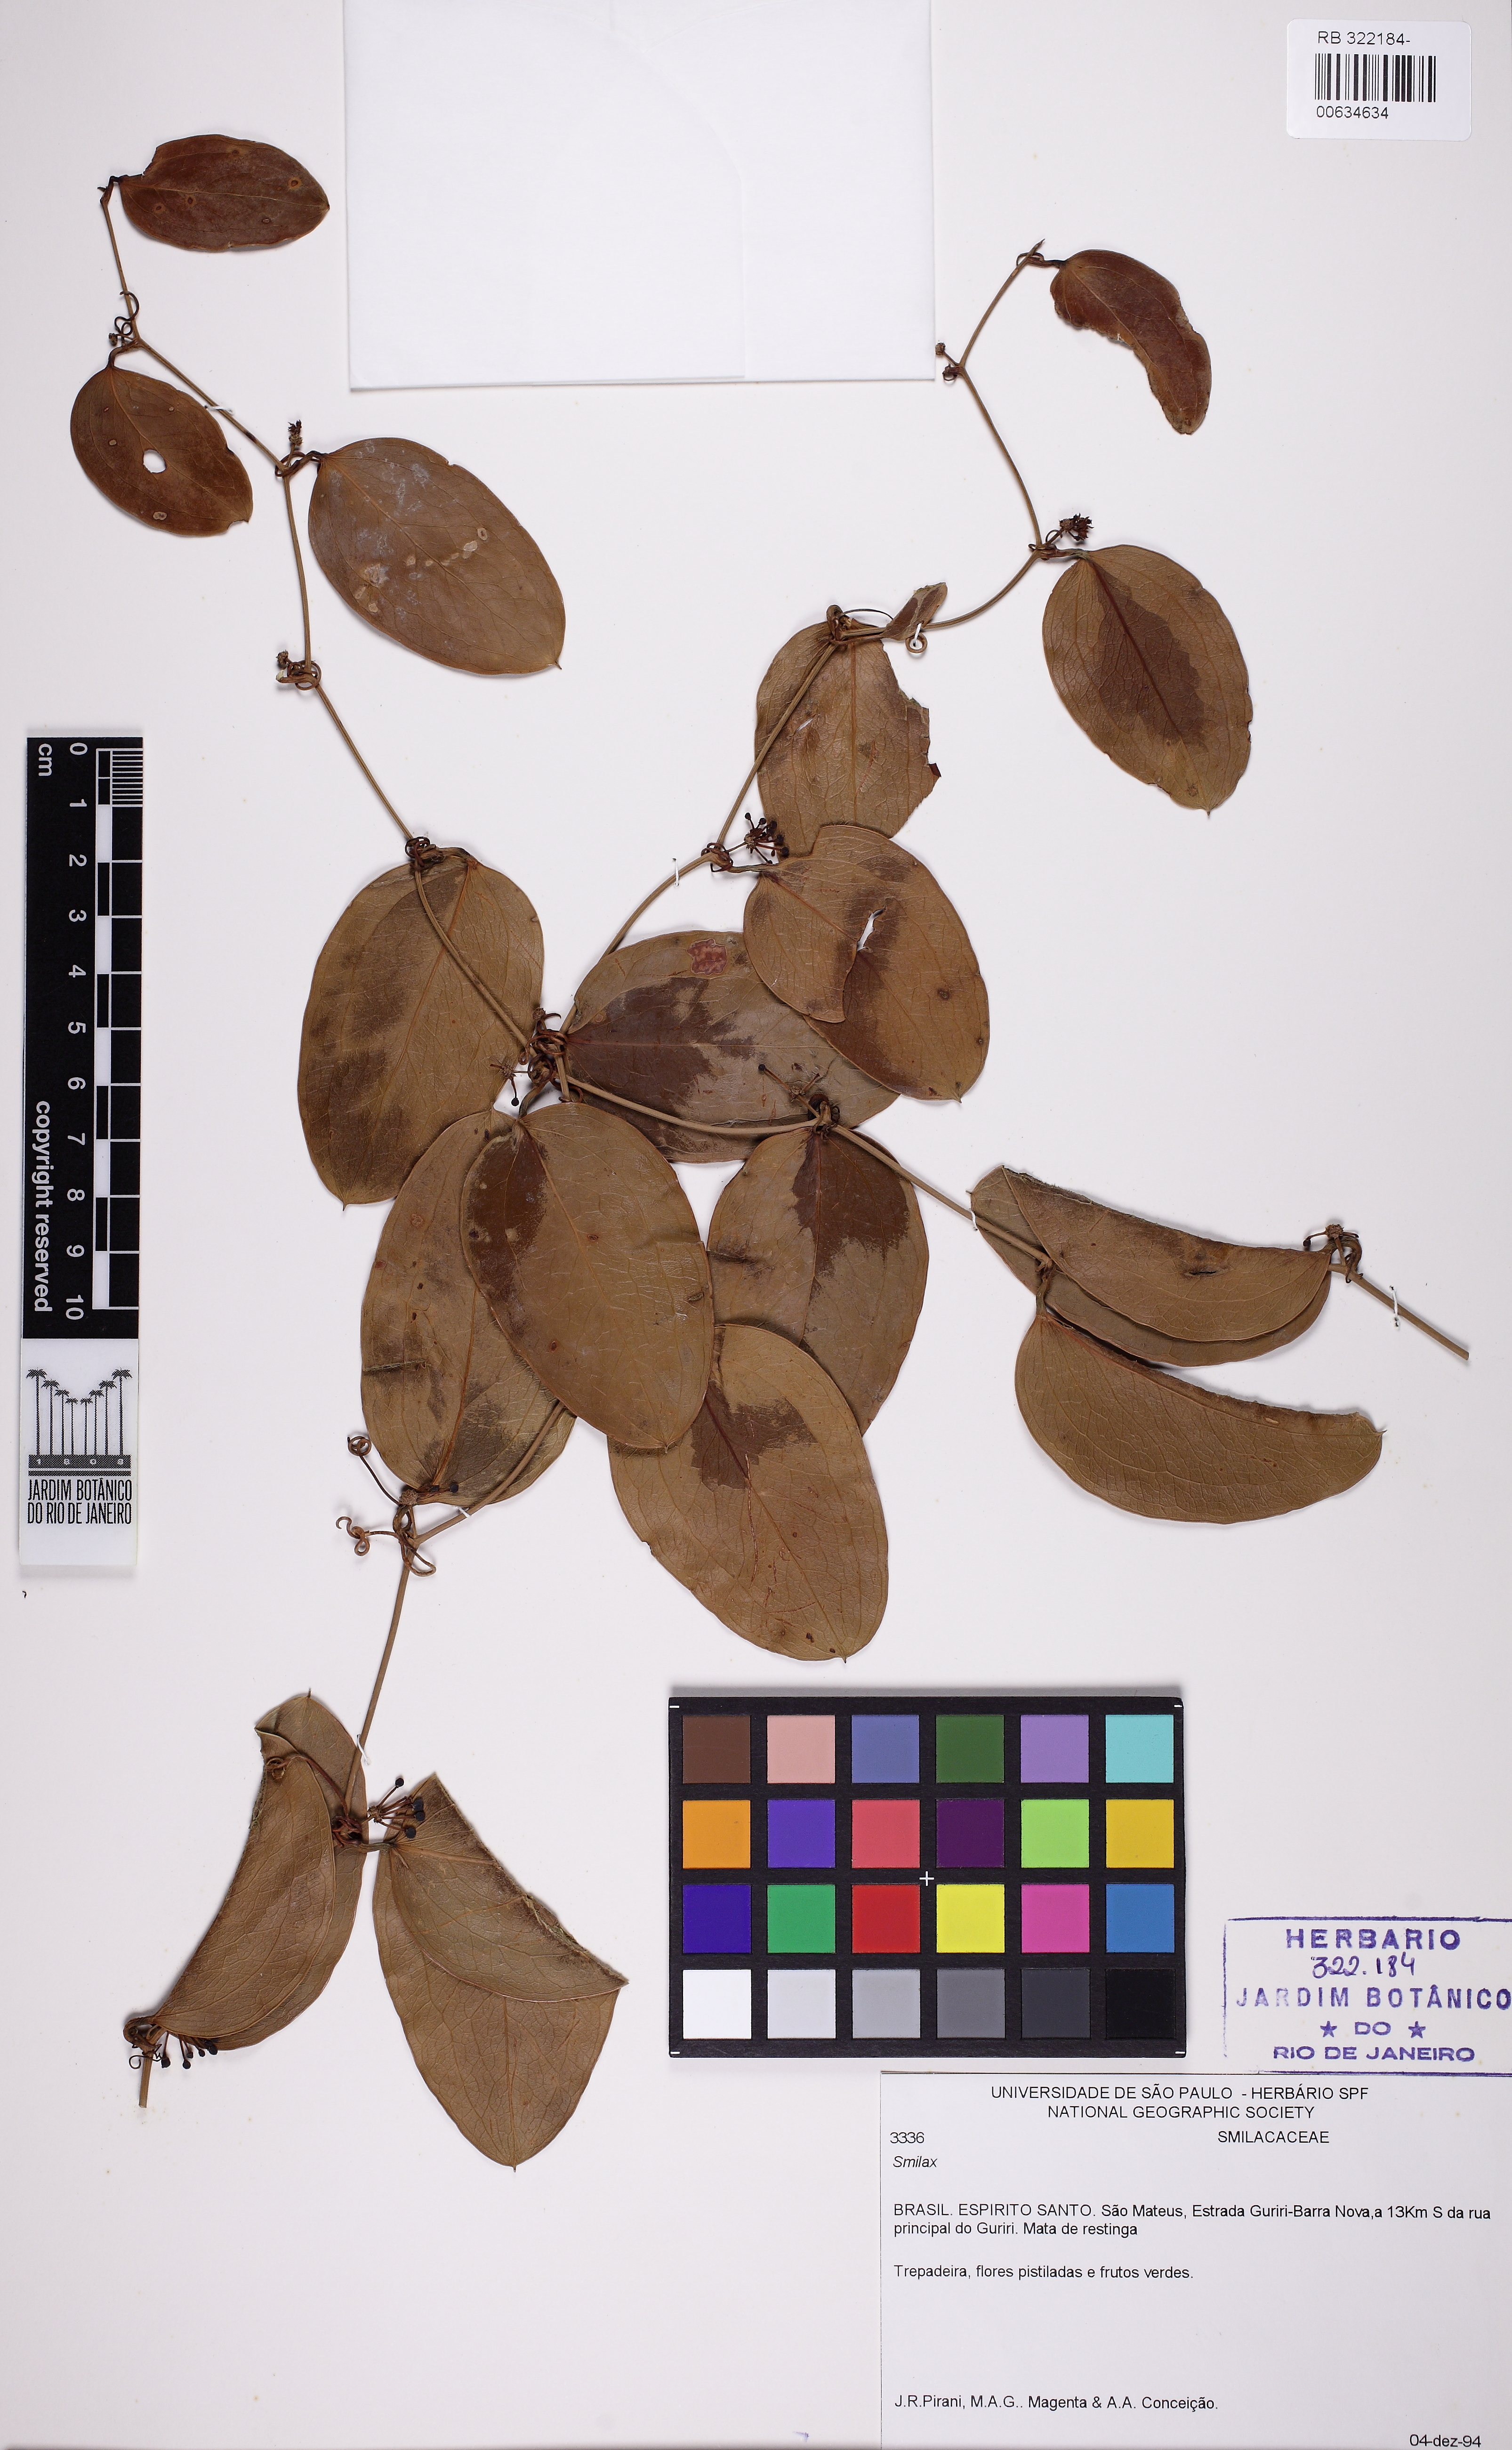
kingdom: Plantae
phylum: Tracheophyta
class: Liliopsida
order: Liliales
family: Smilacaceae
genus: Smilax
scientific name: Smilax
